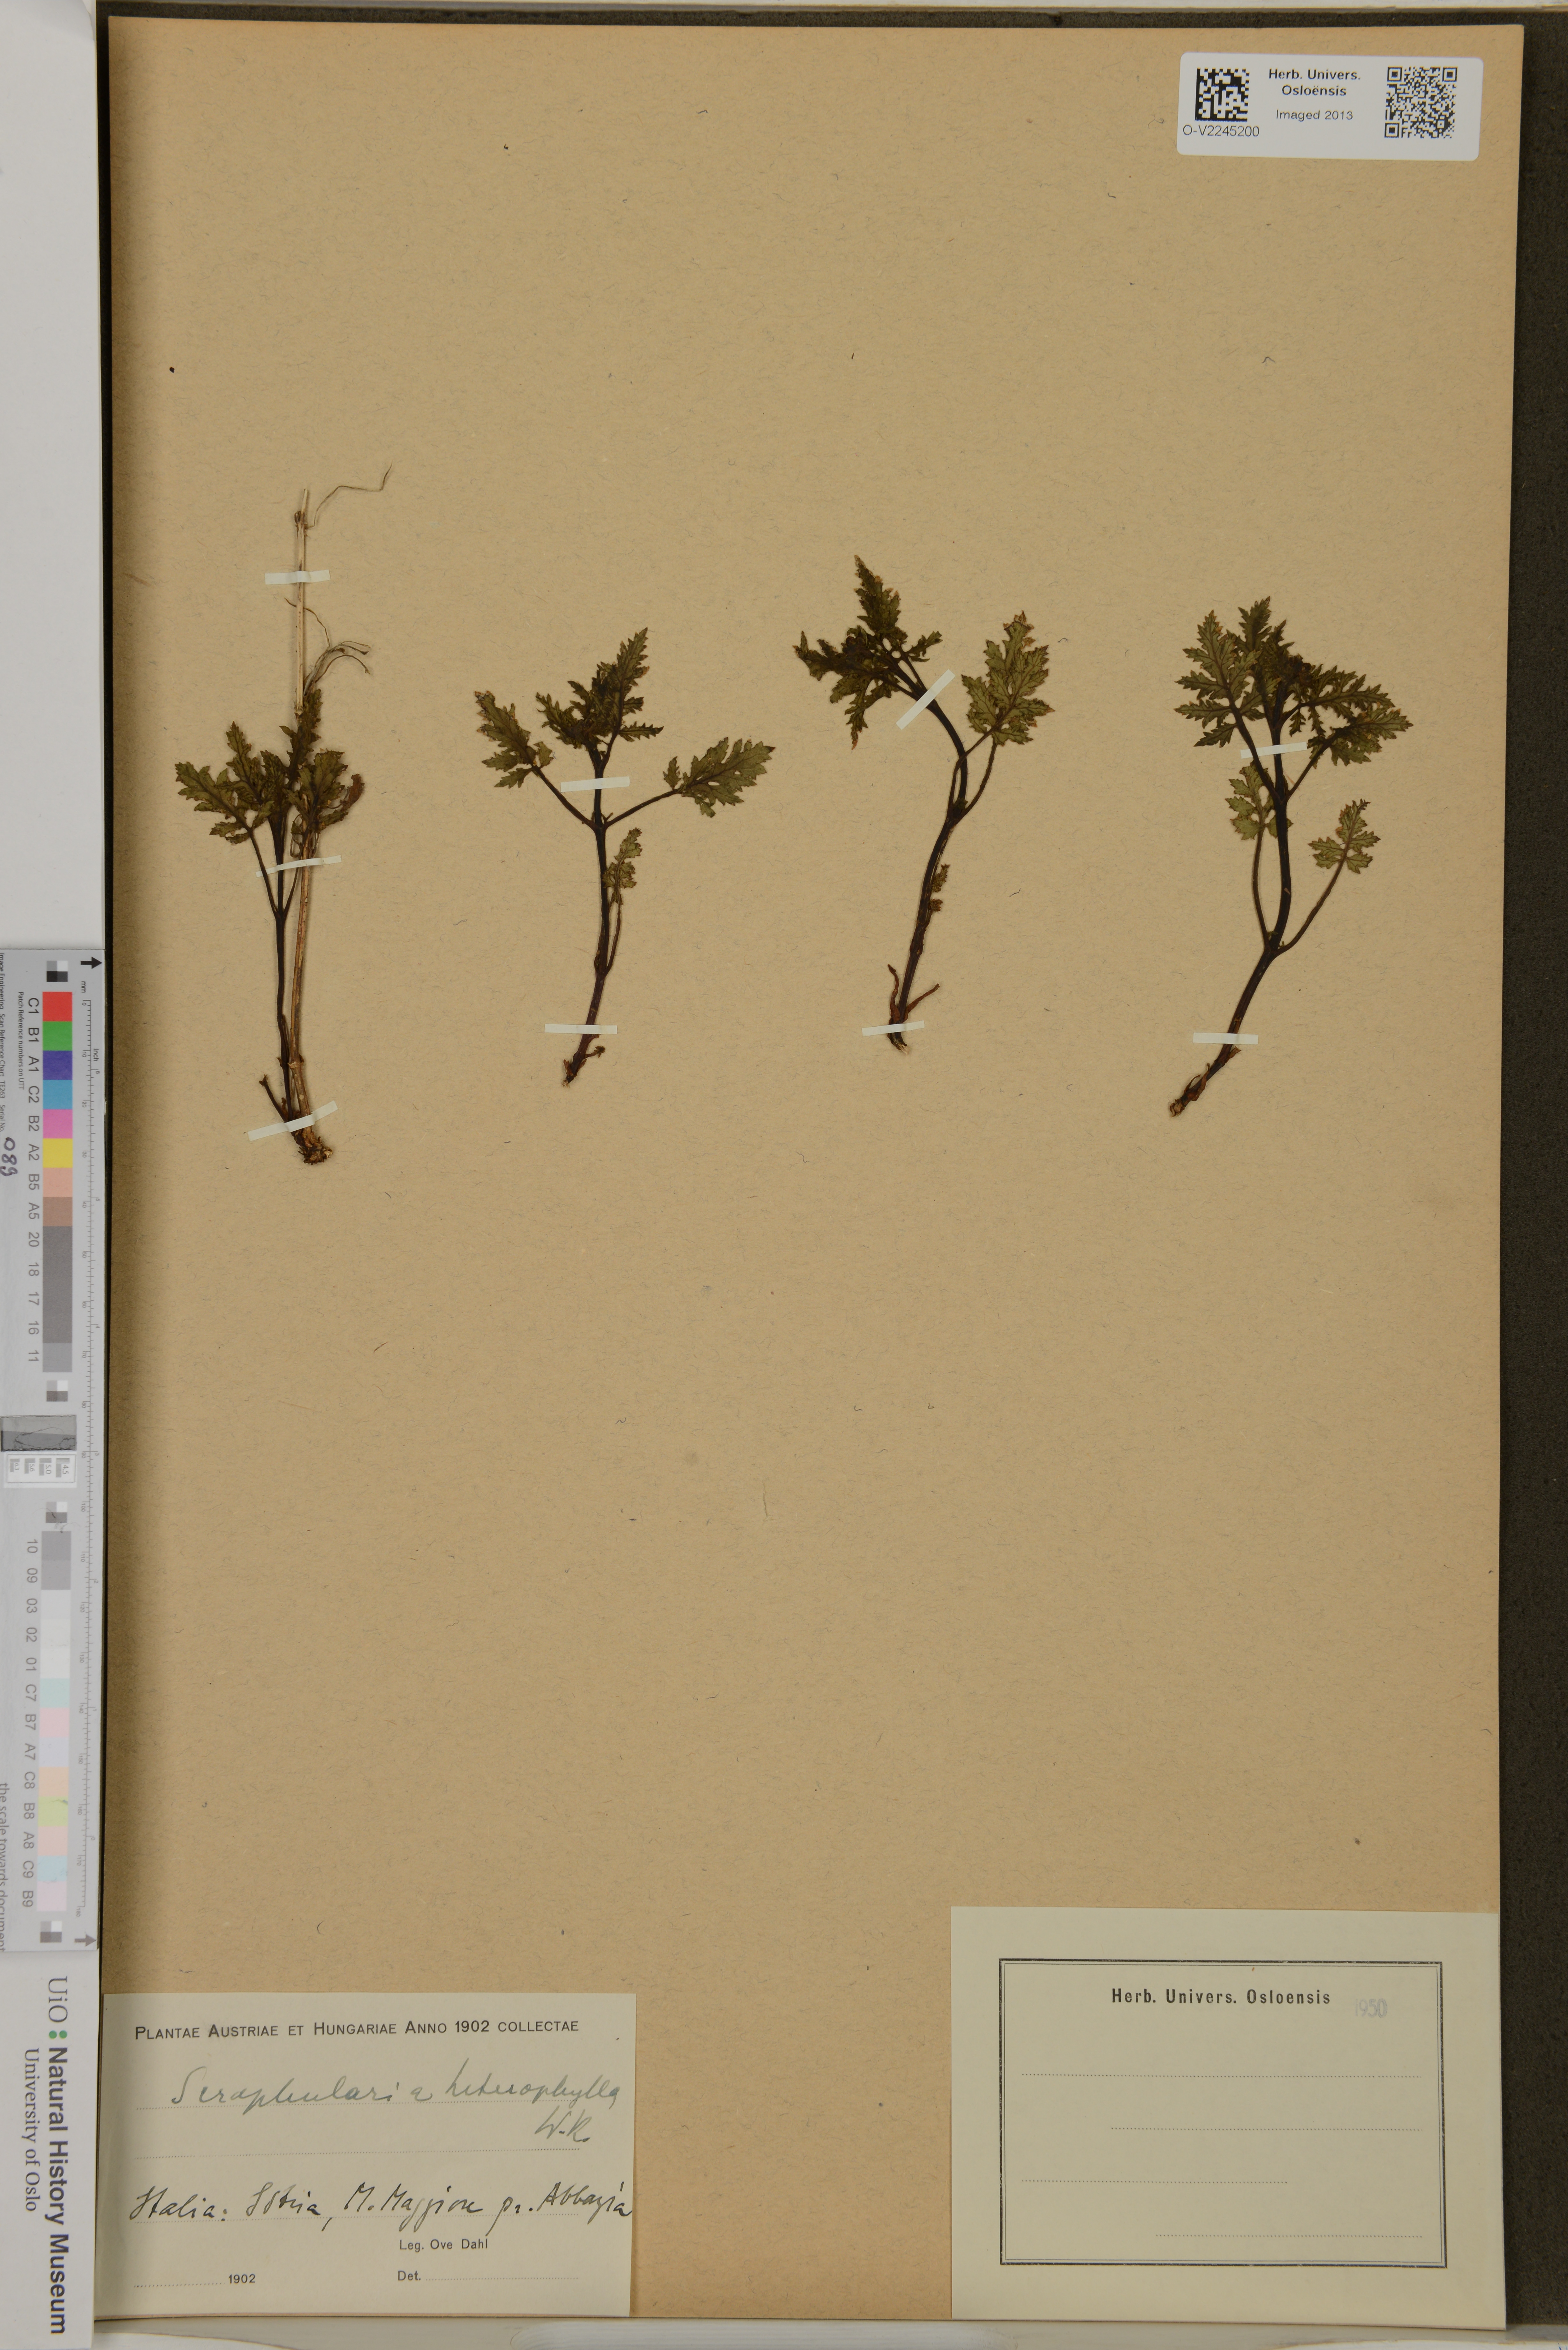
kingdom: Plantae
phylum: Tracheophyta
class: Magnoliopsida
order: Lamiales
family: Scrophulariaceae
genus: Scrophularia
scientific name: Scrophularia heterophylla
